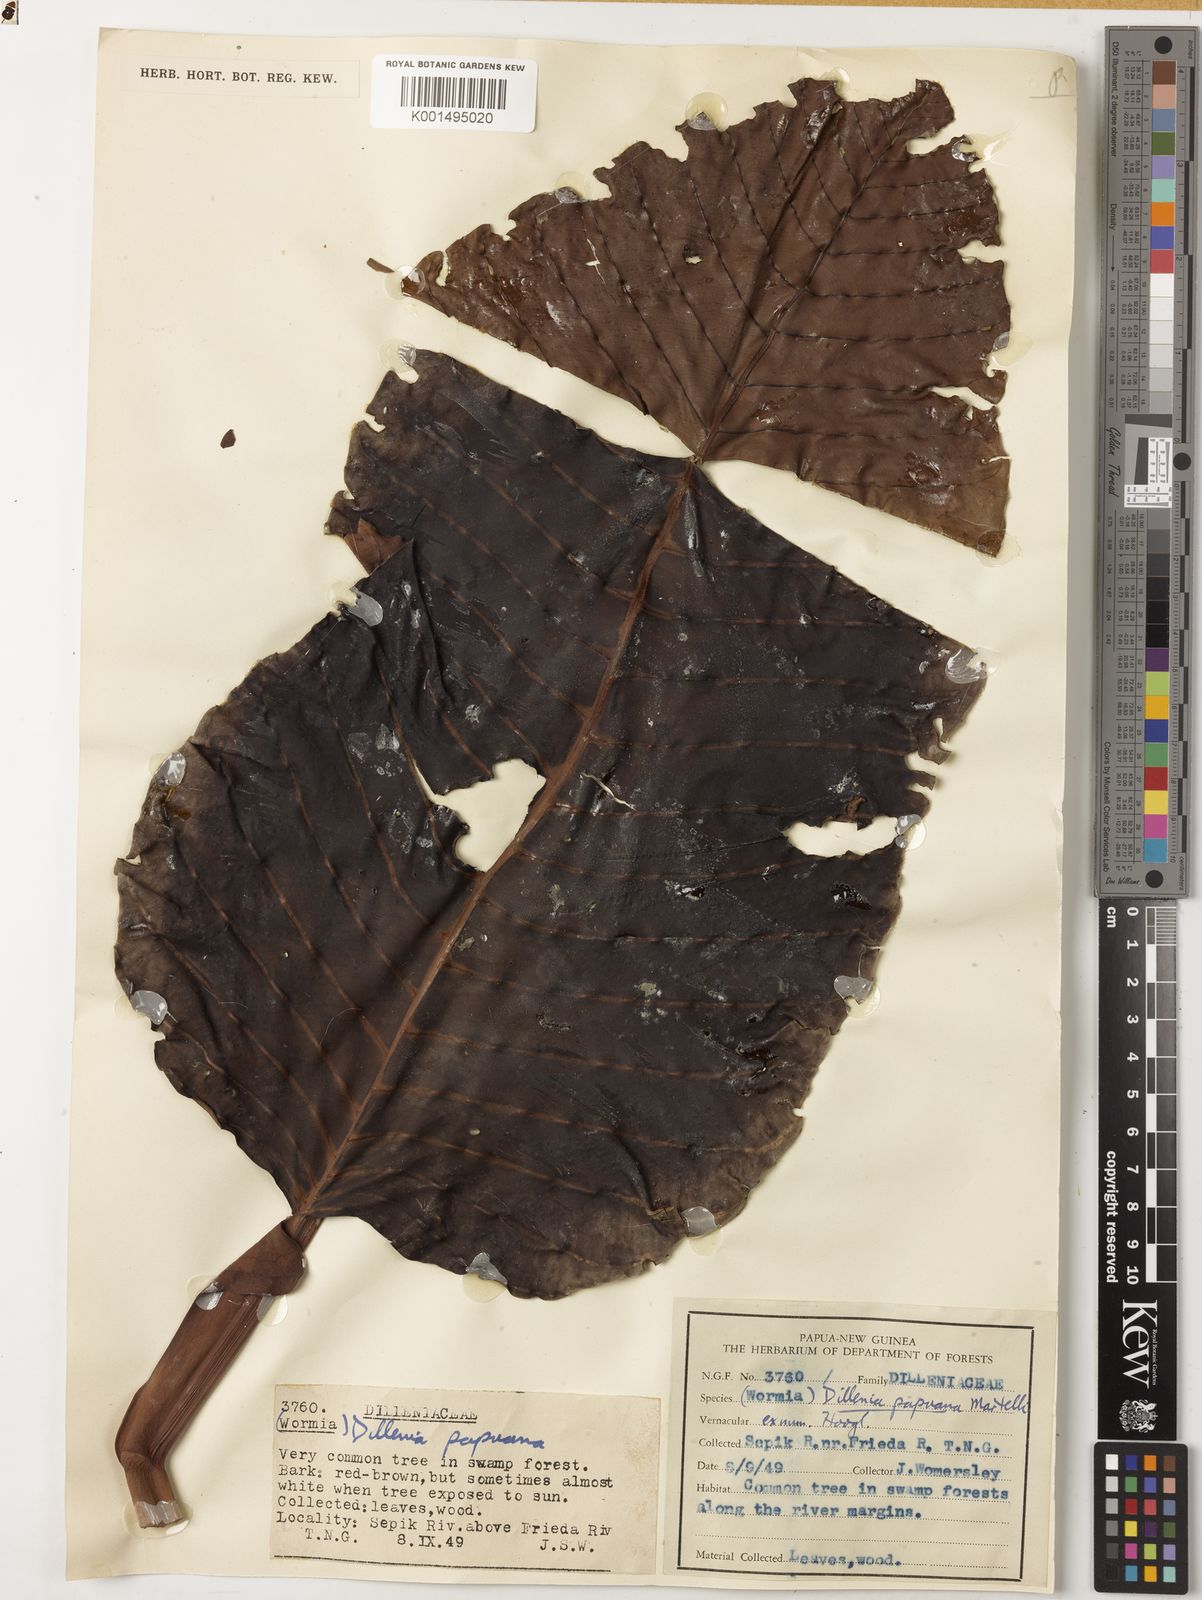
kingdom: Plantae
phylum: Tracheophyta
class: Magnoliopsida
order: Dilleniales
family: Dilleniaceae
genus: Dillenia
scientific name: Dillenia papuana
